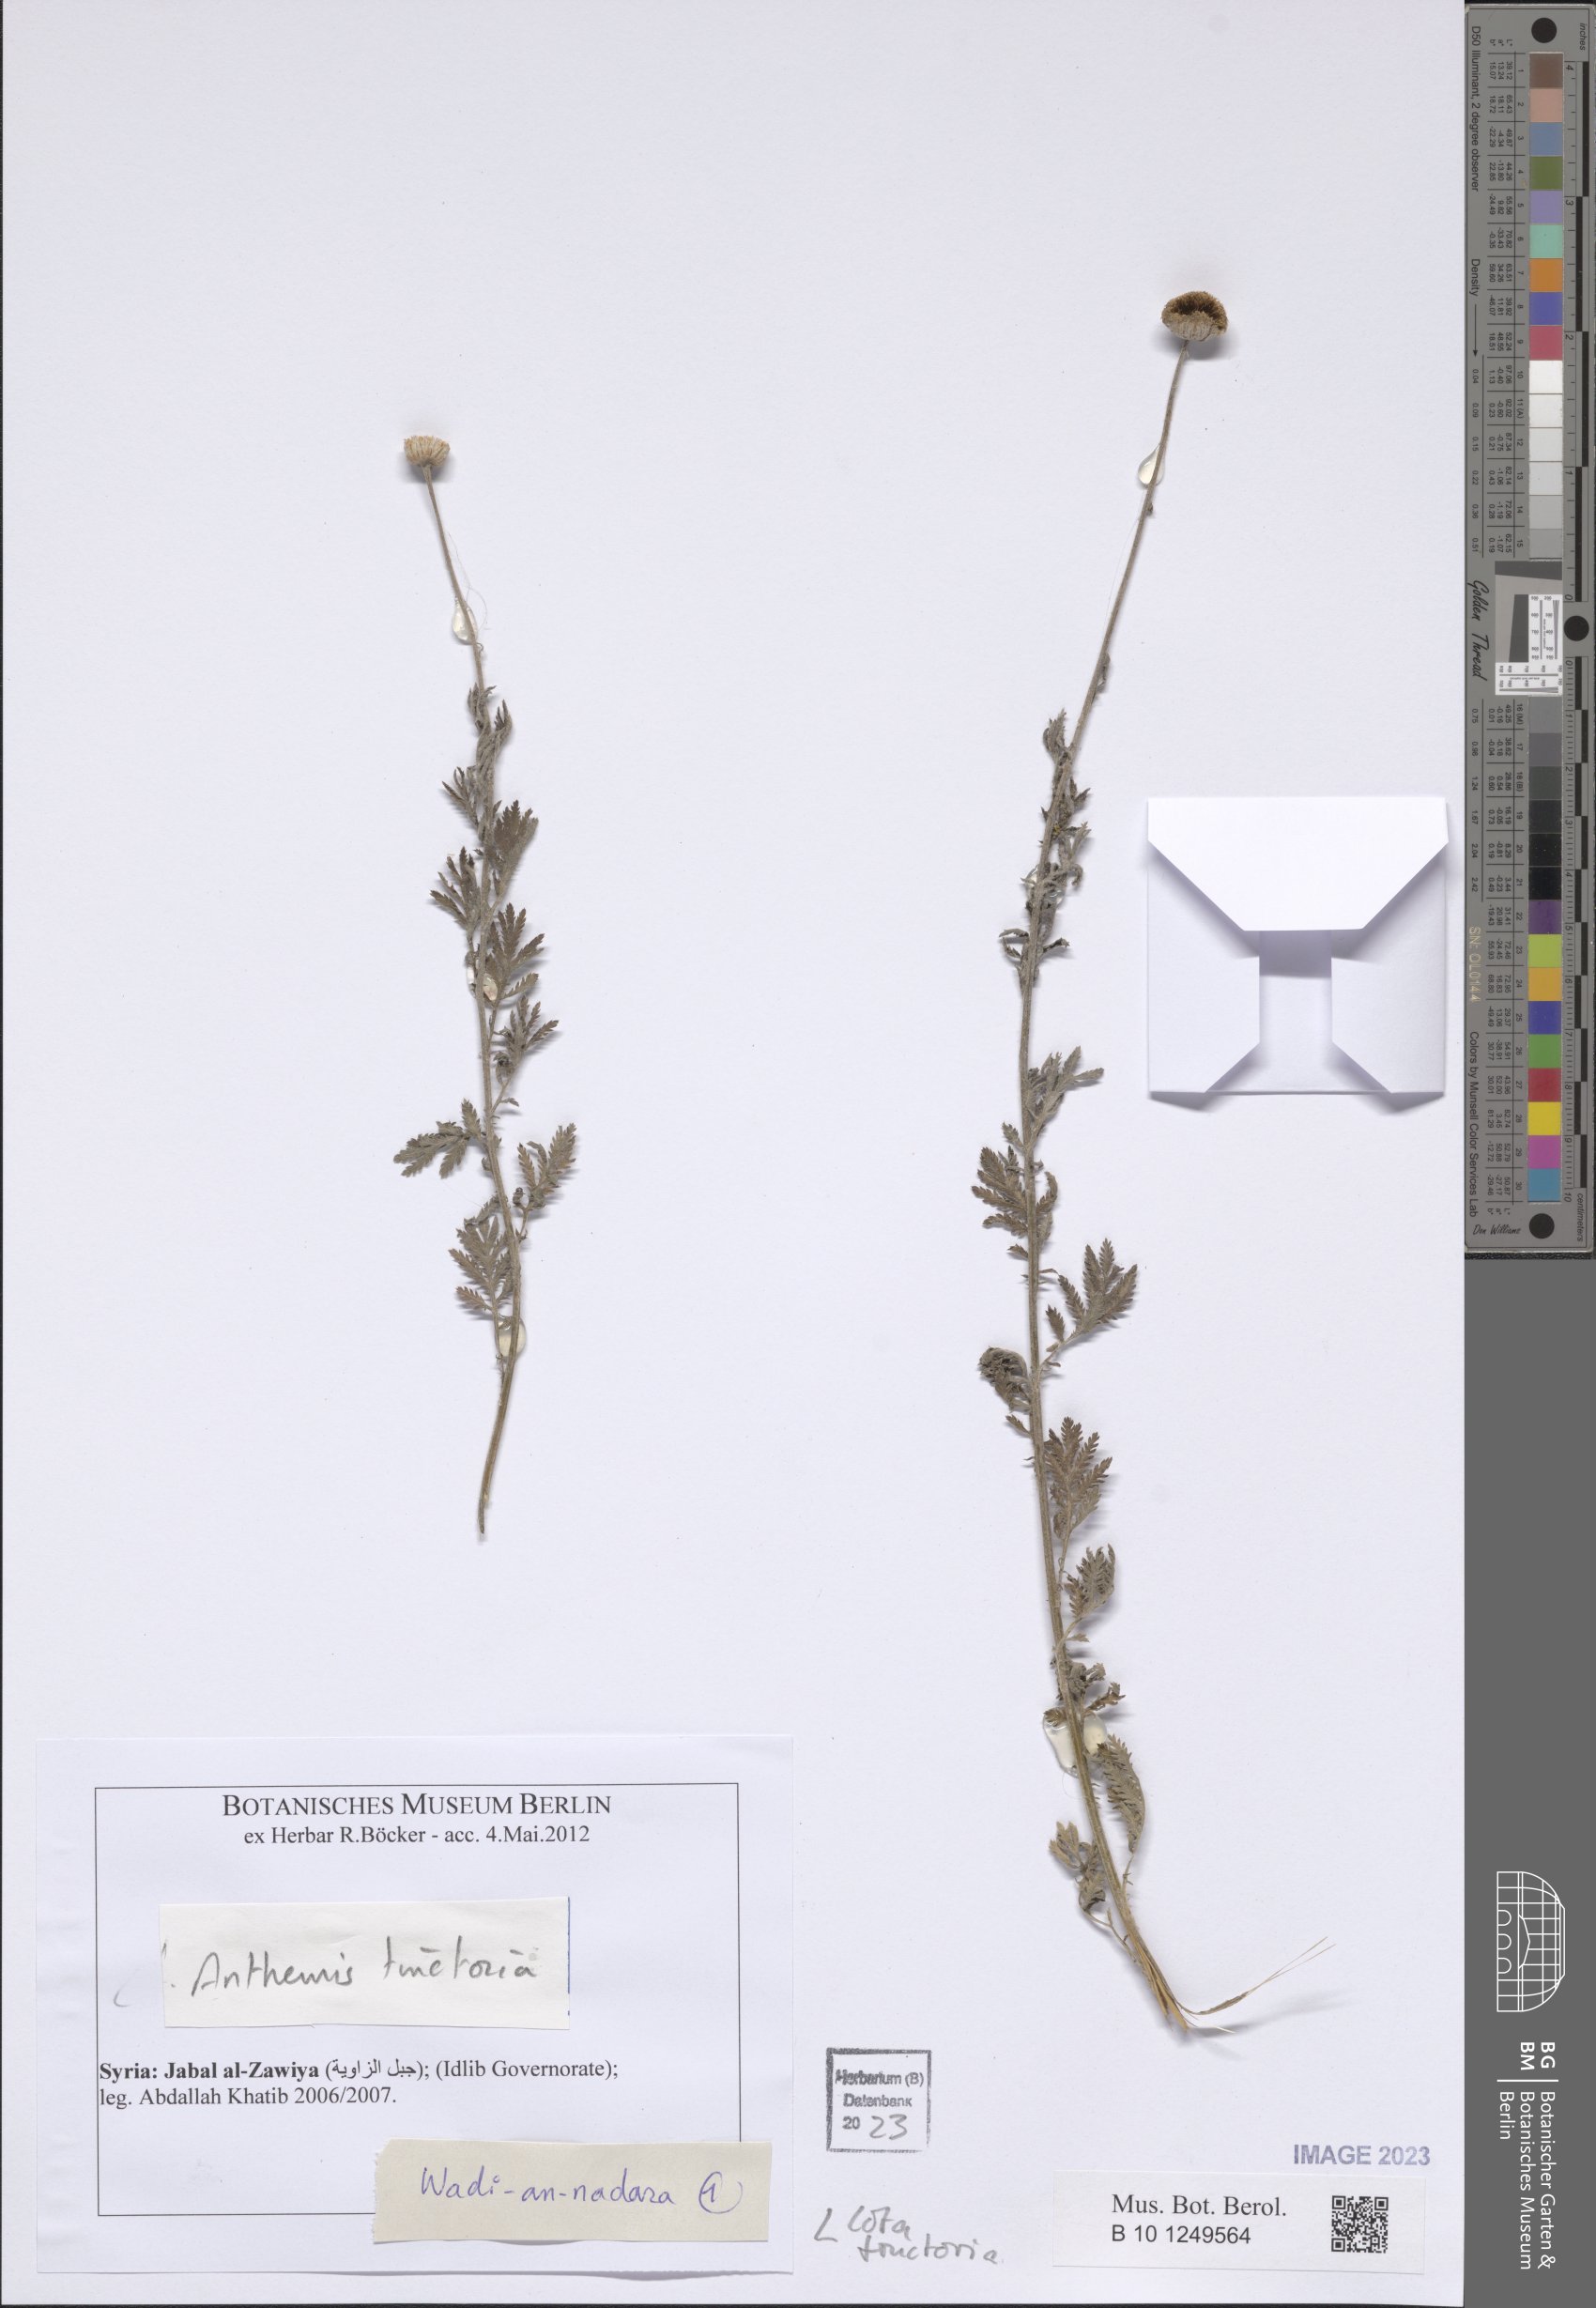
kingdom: Plantae
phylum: Tracheophyta
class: Magnoliopsida
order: Asterales
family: Asteraceae
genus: Cota
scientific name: Cota tinctoria
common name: Golden chamomile
